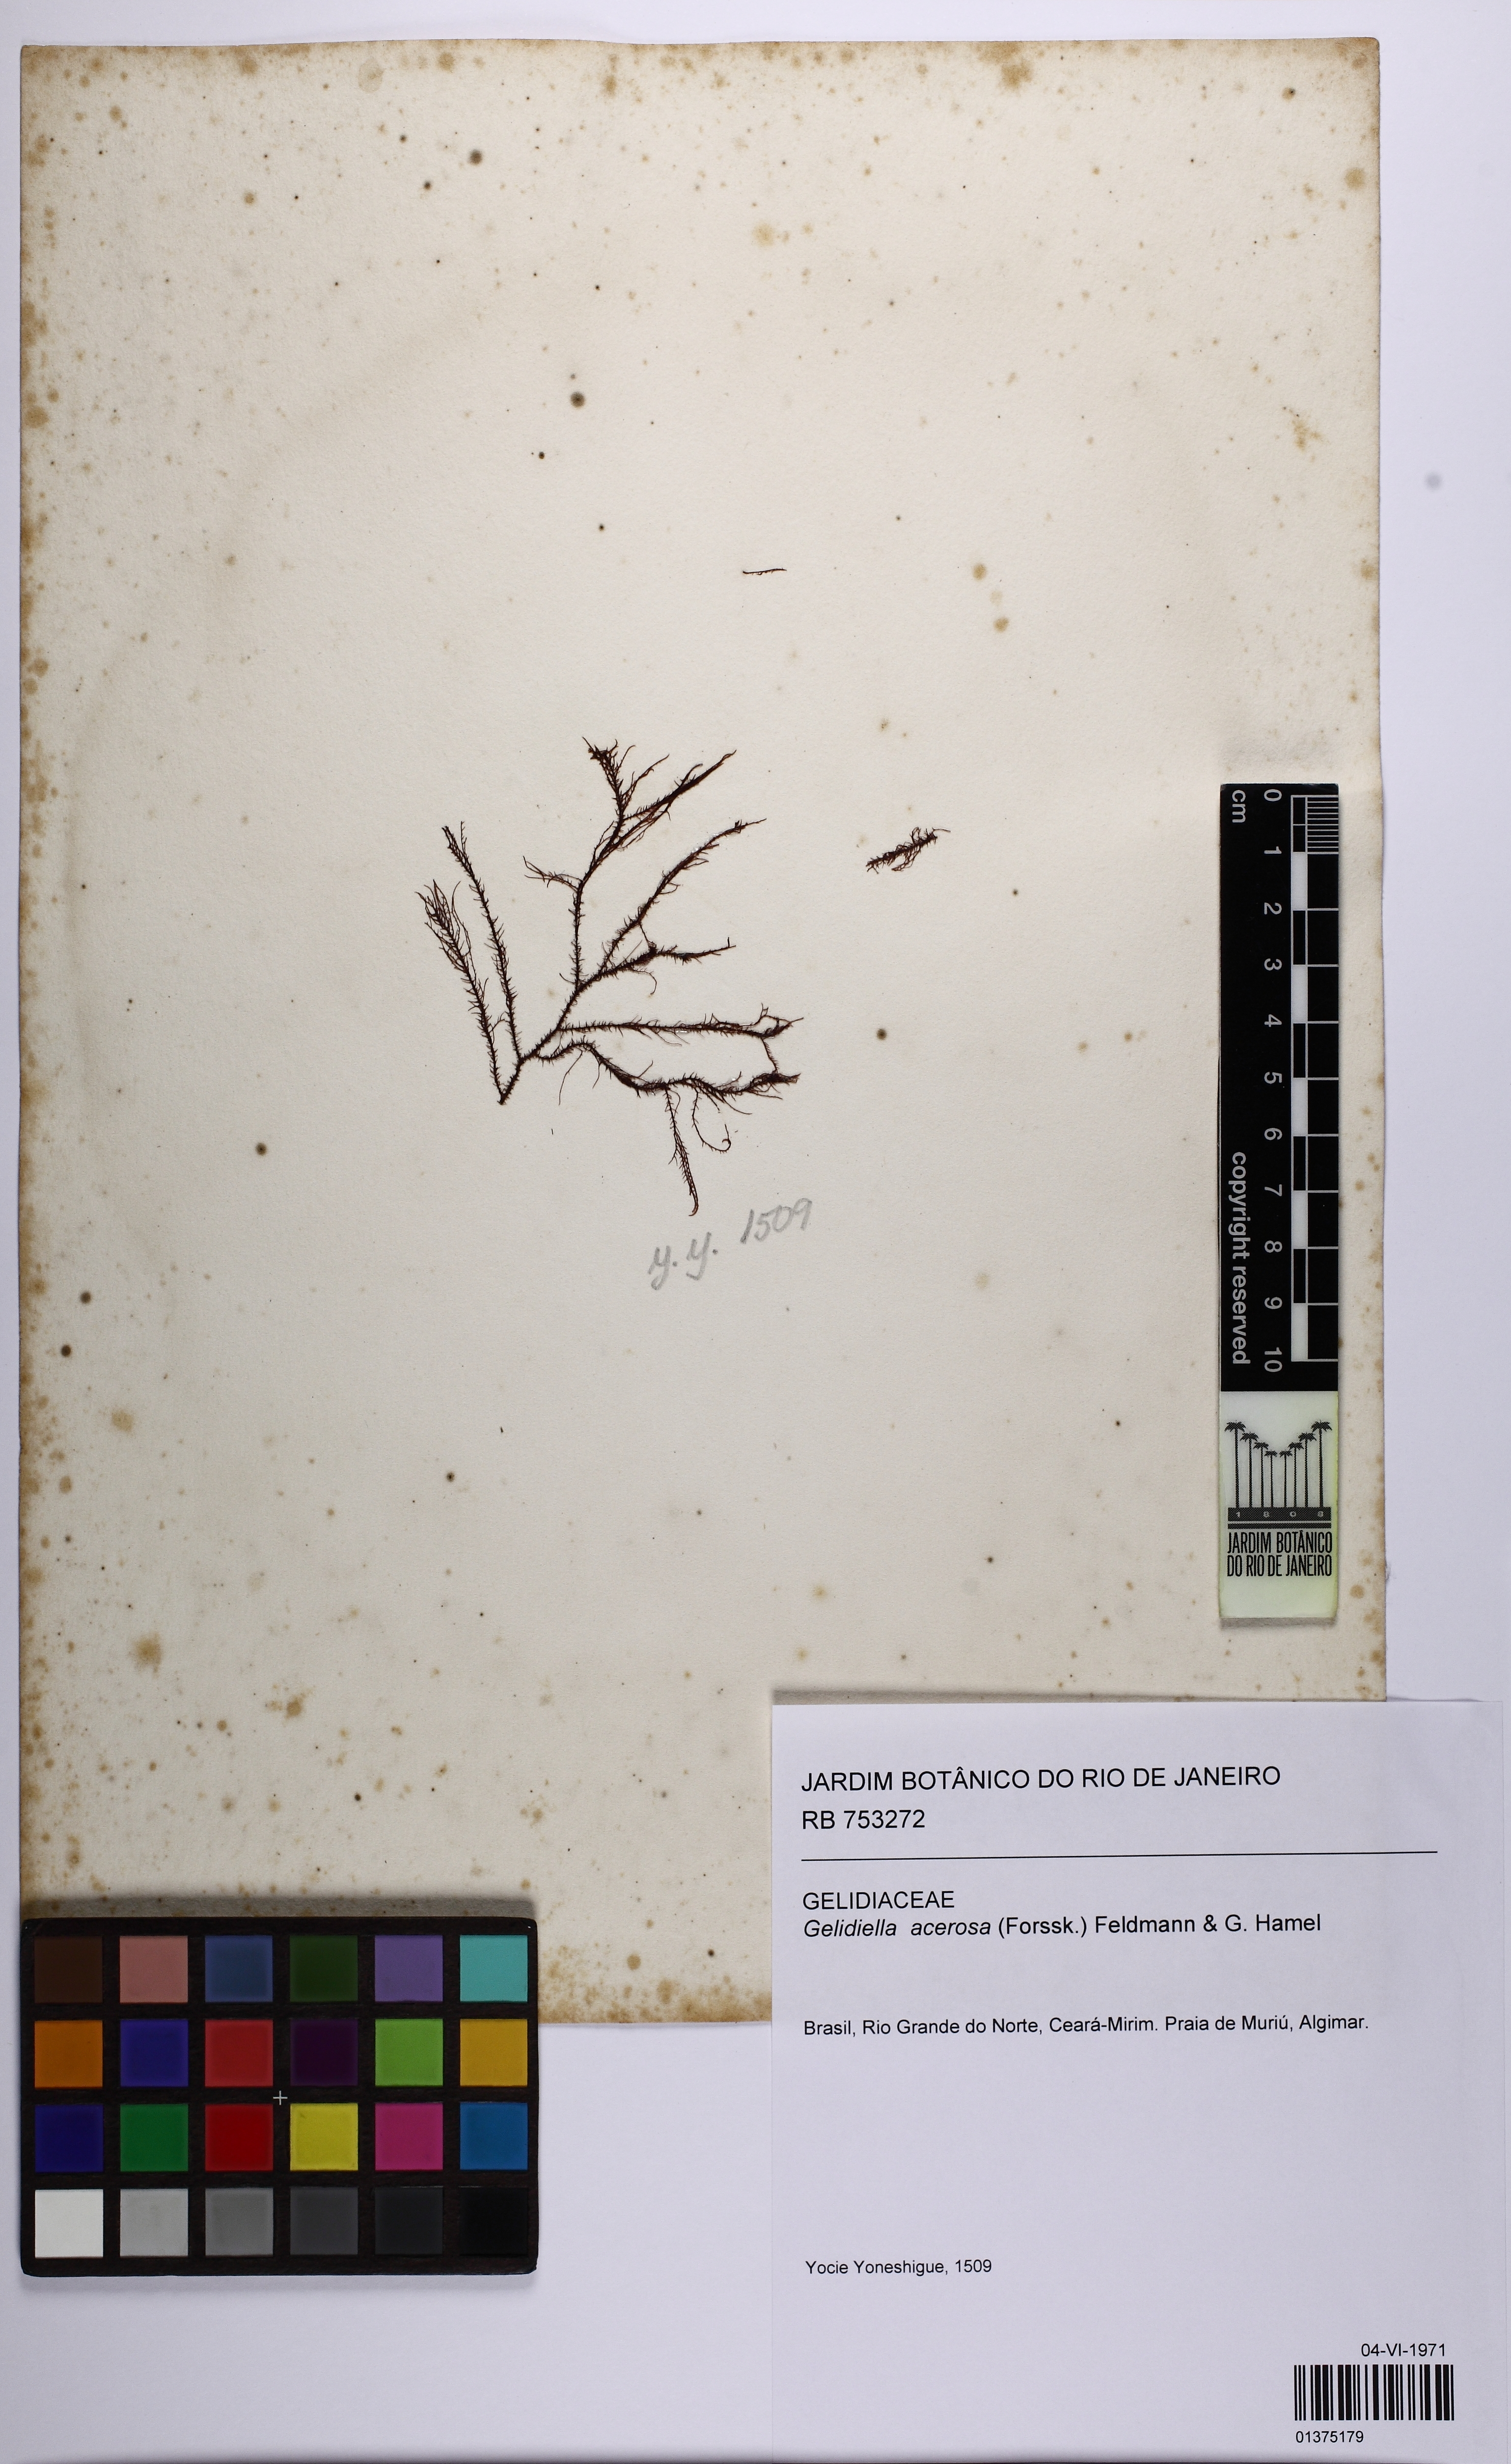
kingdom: Plantae
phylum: Rhodophyta
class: Florideophyceae
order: Gelidiales
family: Gelidiellaceae
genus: Gelidiella
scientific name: Gelidiella acerosa
